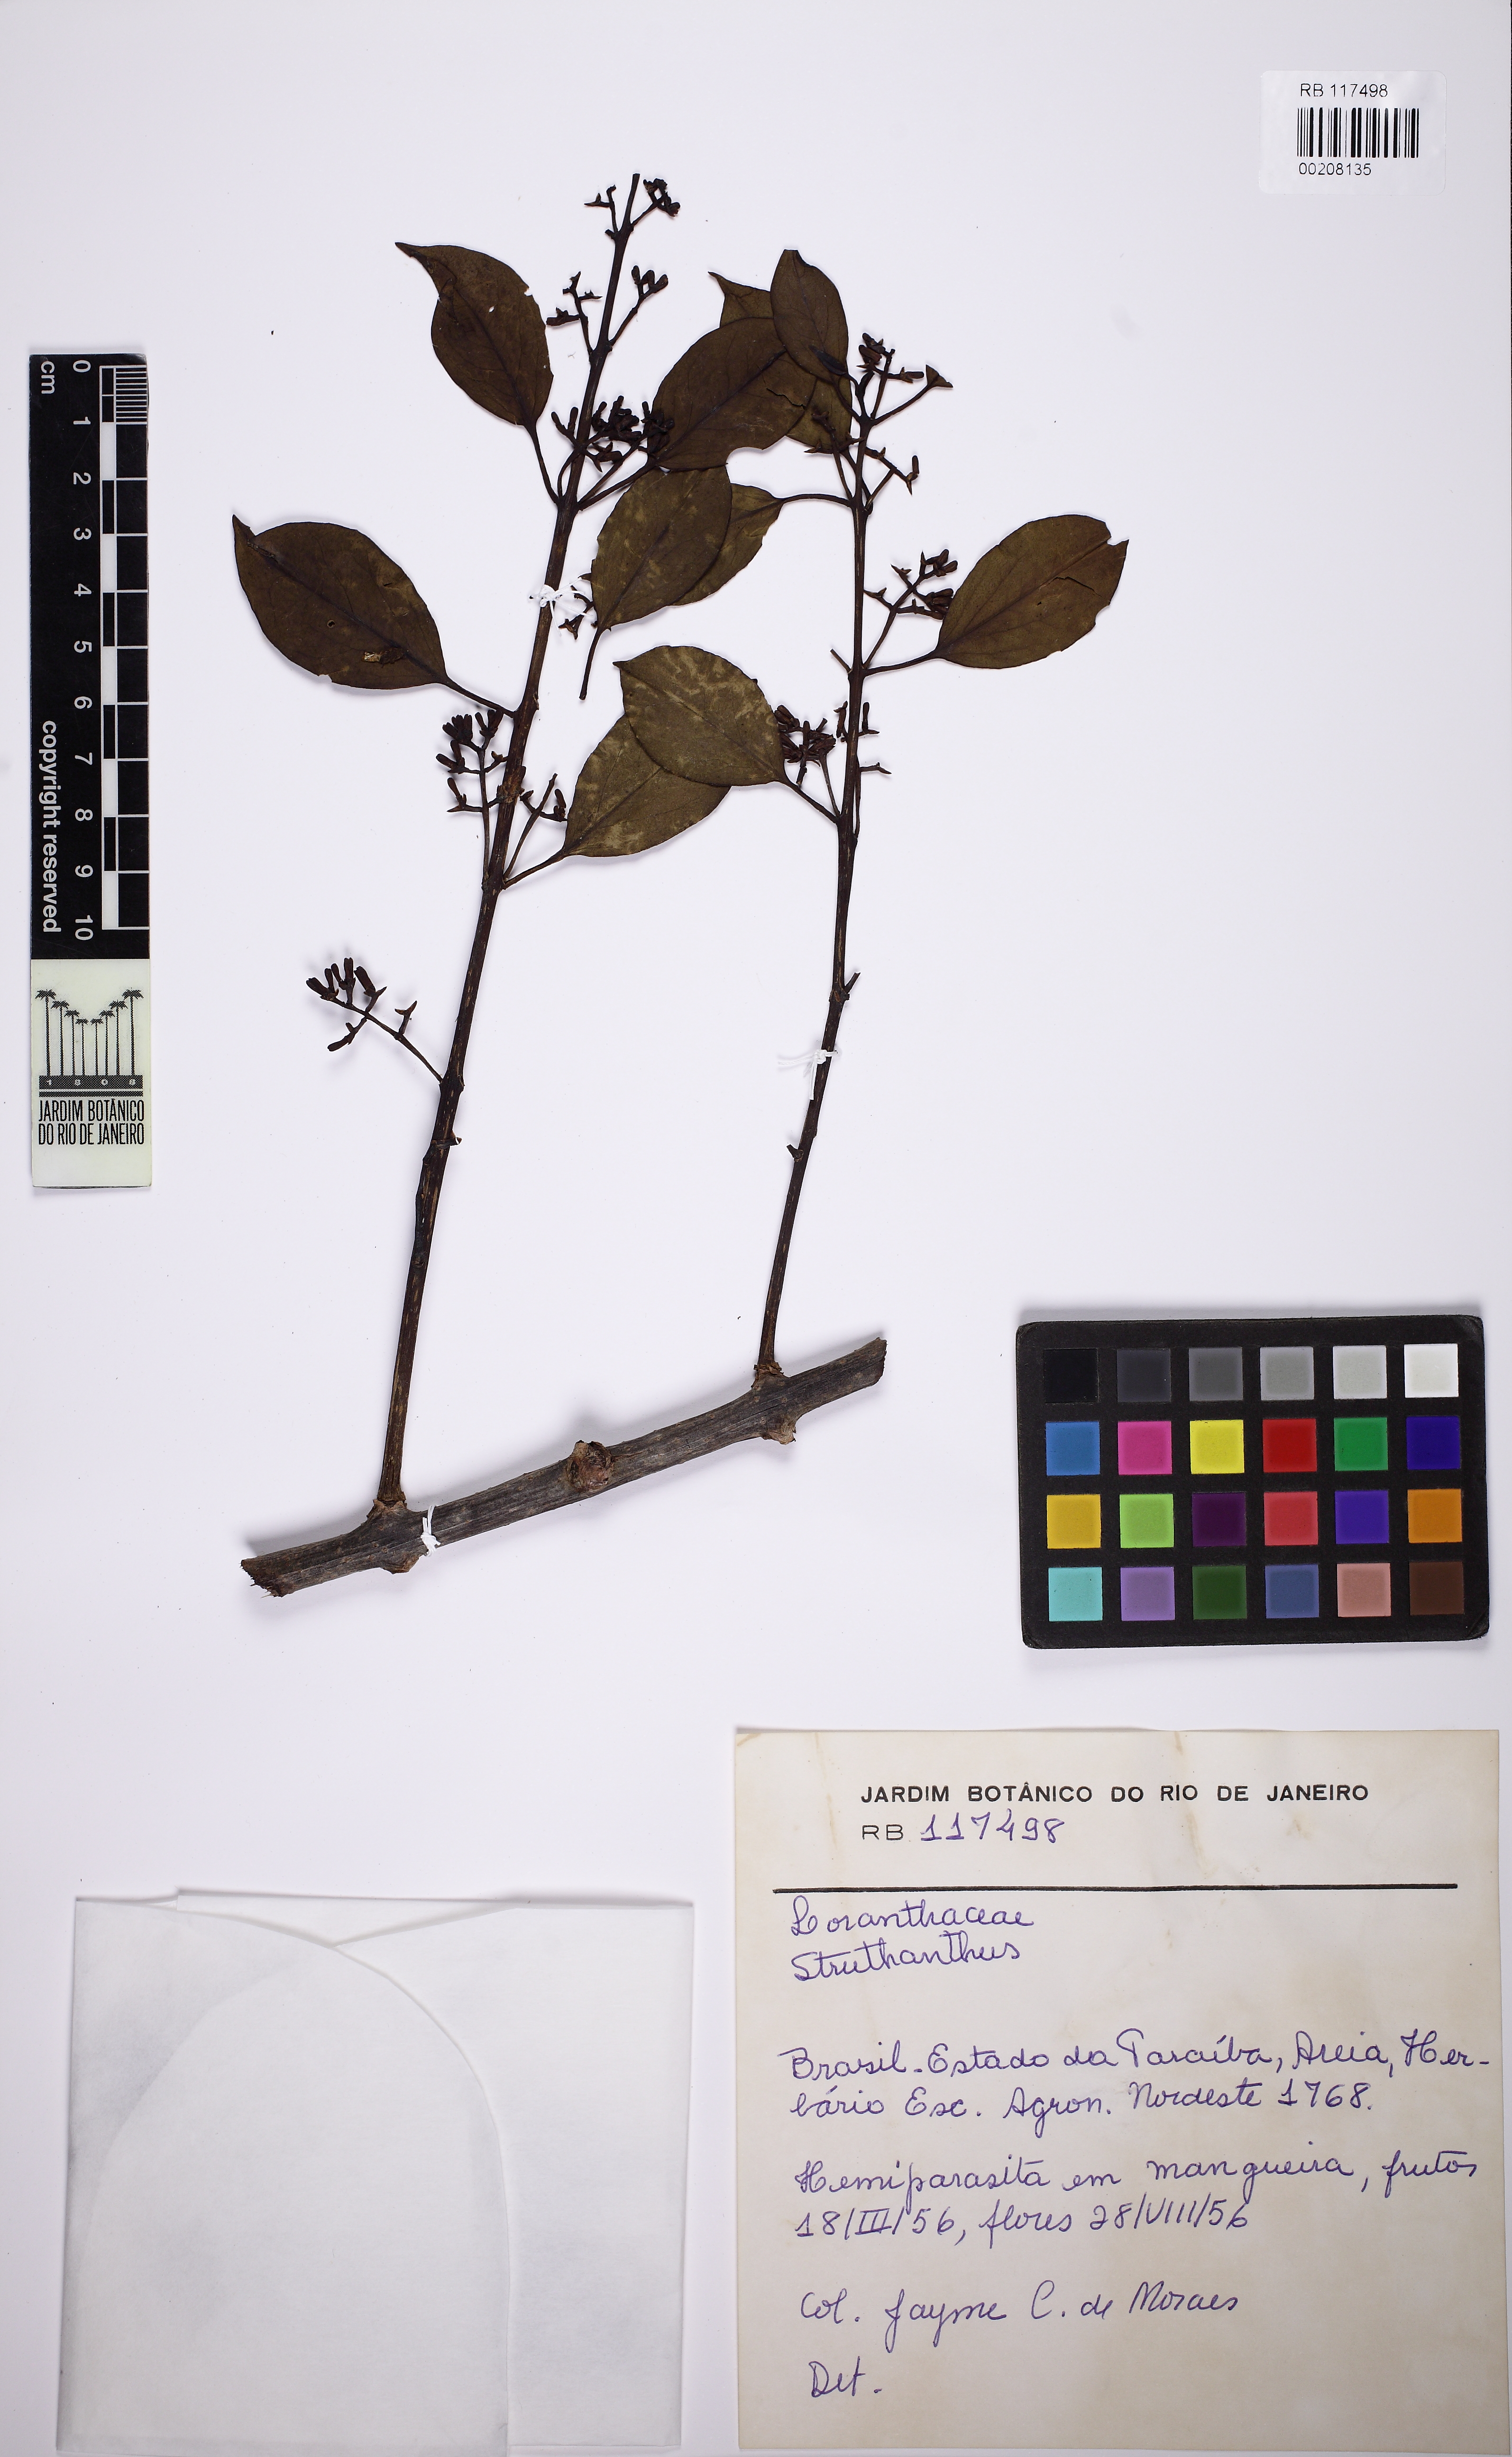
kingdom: Plantae
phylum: Tracheophyta
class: Magnoliopsida
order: Santalales
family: Loranthaceae
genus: Struthanthus
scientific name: Struthanthus
